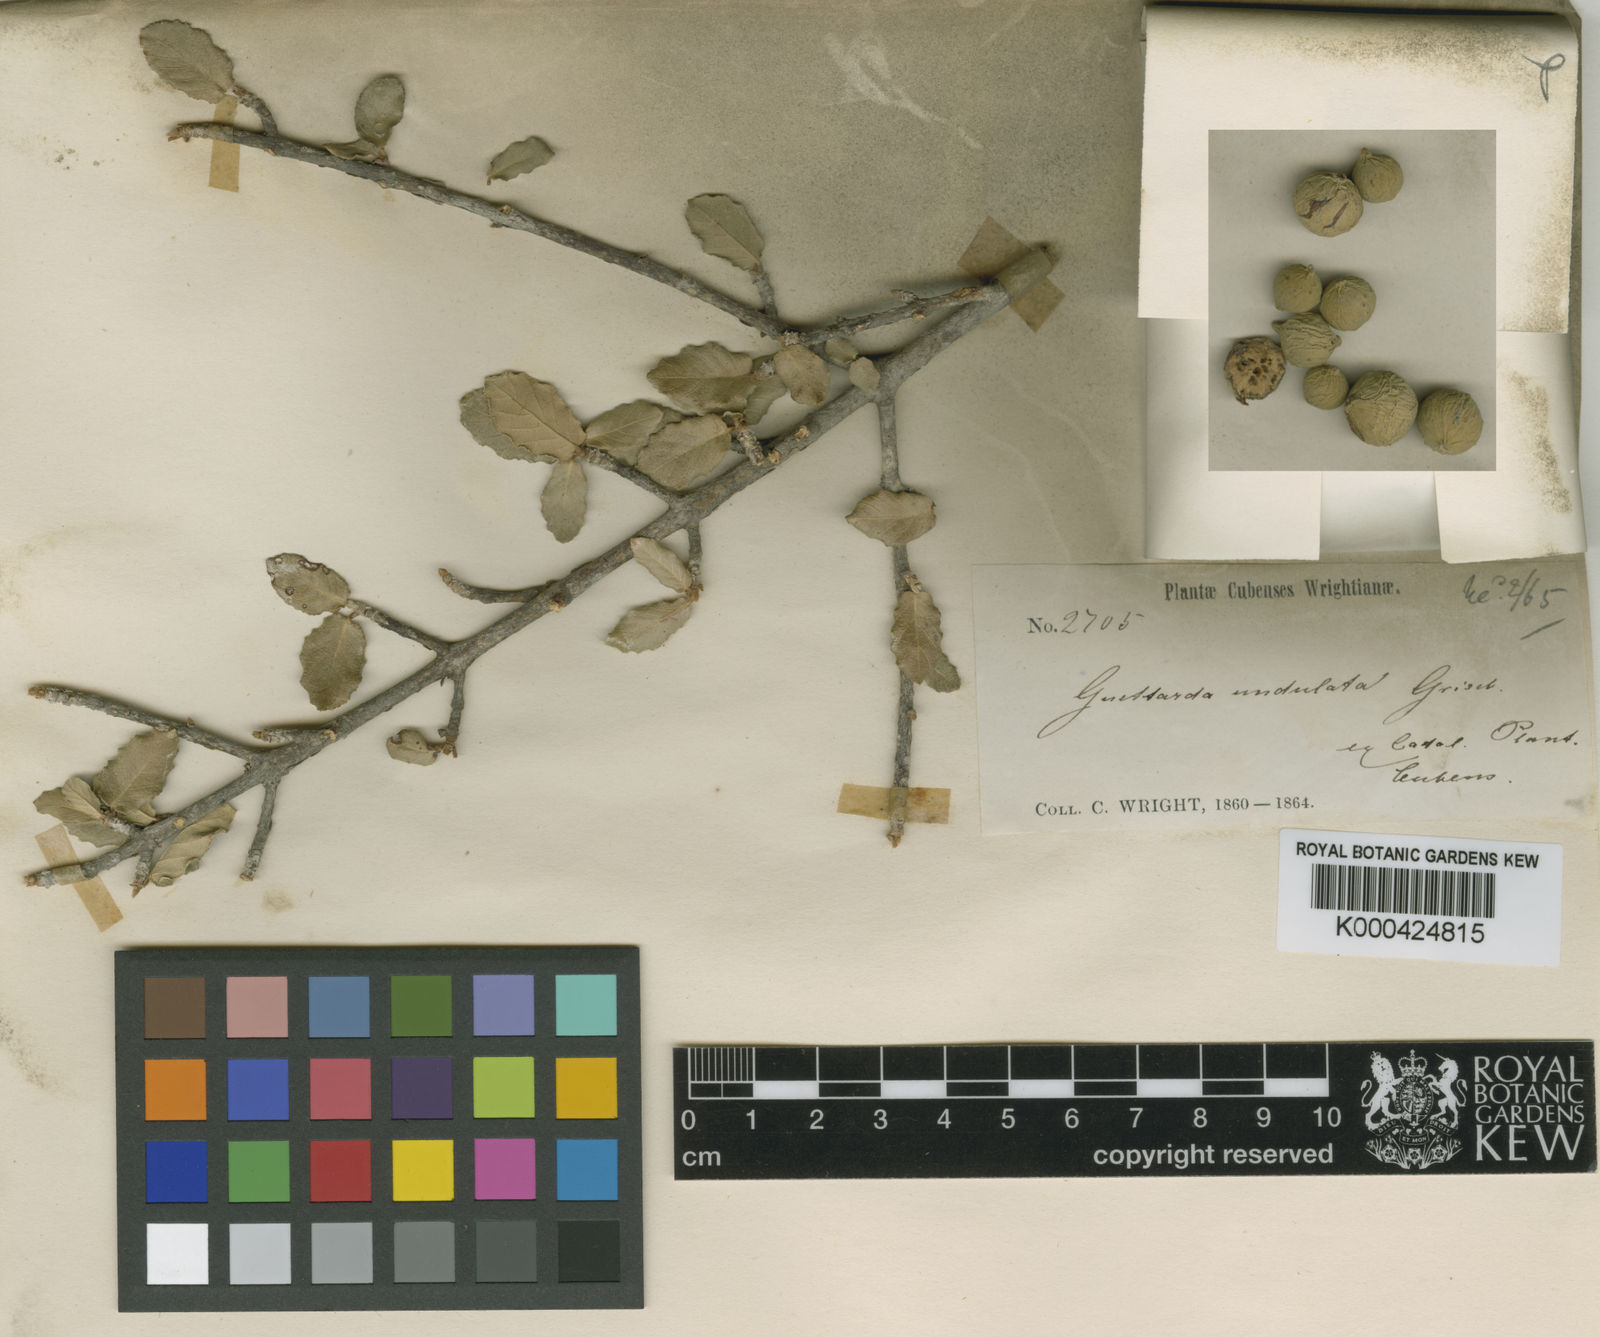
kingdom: Plantae
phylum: Tracheophyta
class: Magnoliopsida
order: Gentianales
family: Rubiaceae
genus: Guettarda
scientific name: Guettarda undulata
